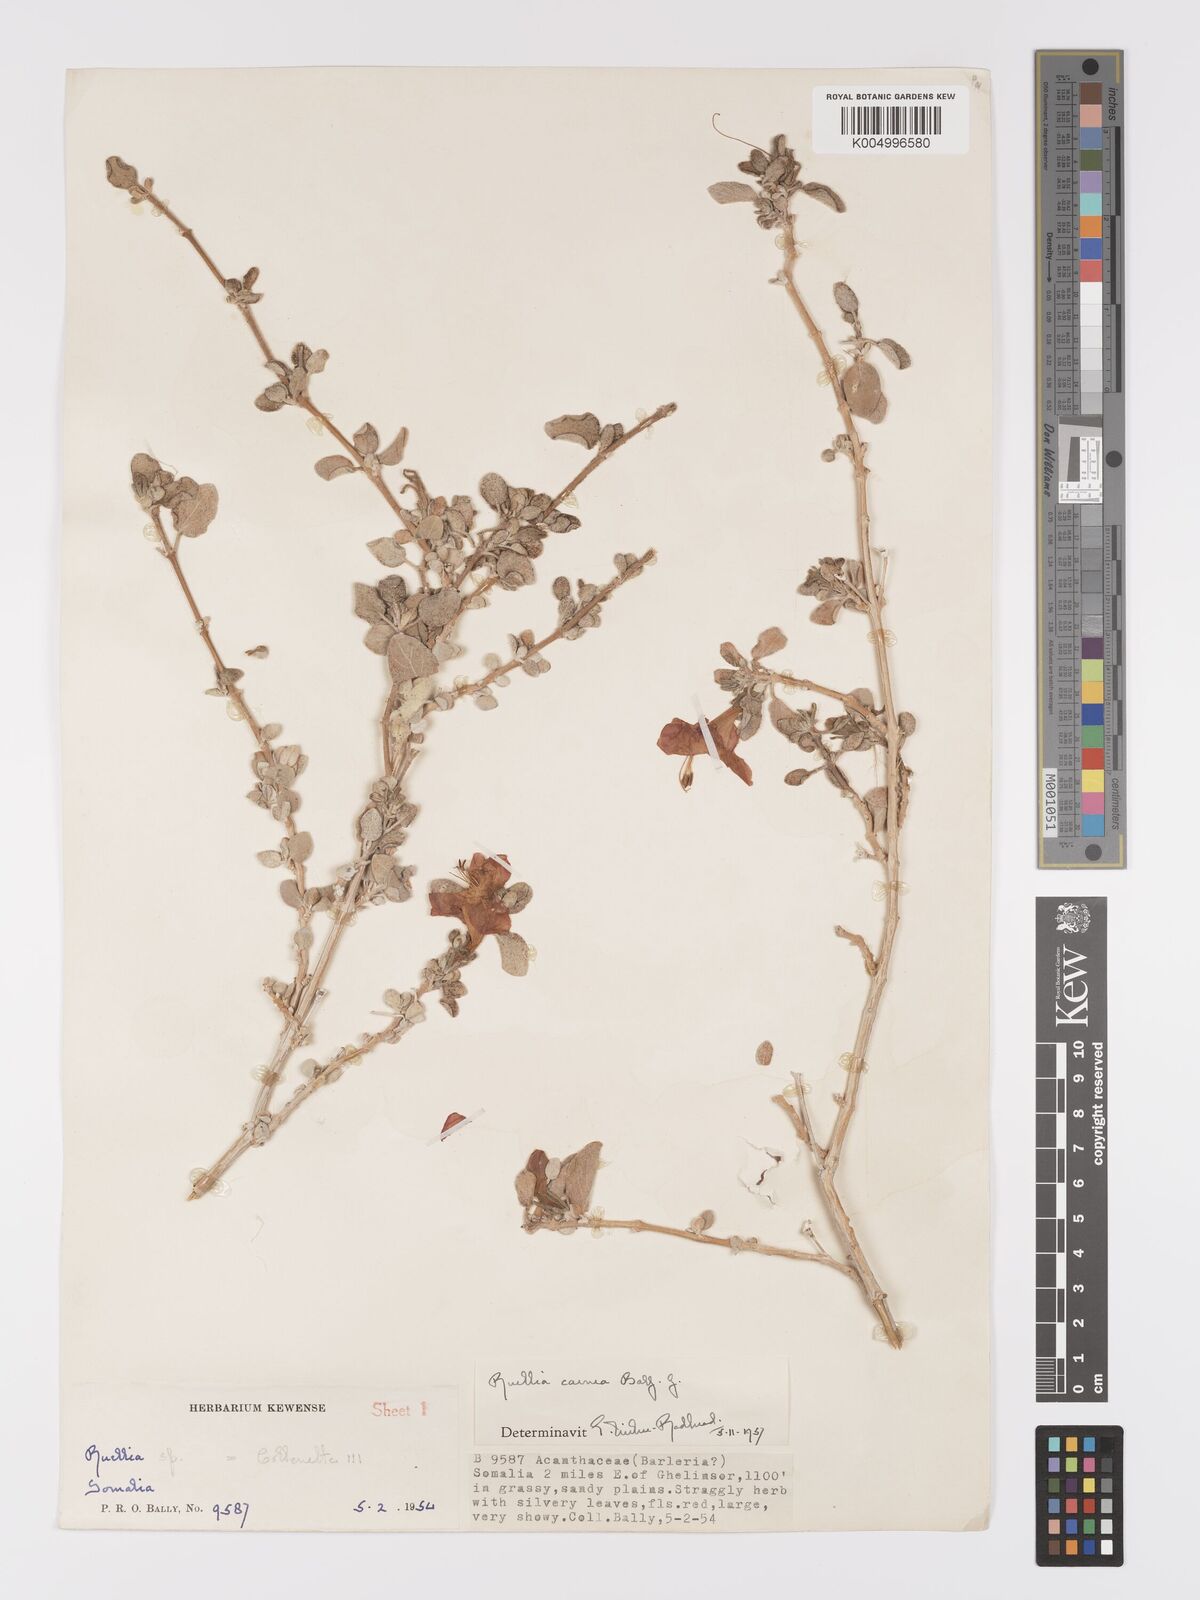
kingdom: Plantae
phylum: Tracheophyta
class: Magnoliopsida
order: Lamiales
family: Acanthaceae
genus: Ruellia
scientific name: Ruellia carnea
